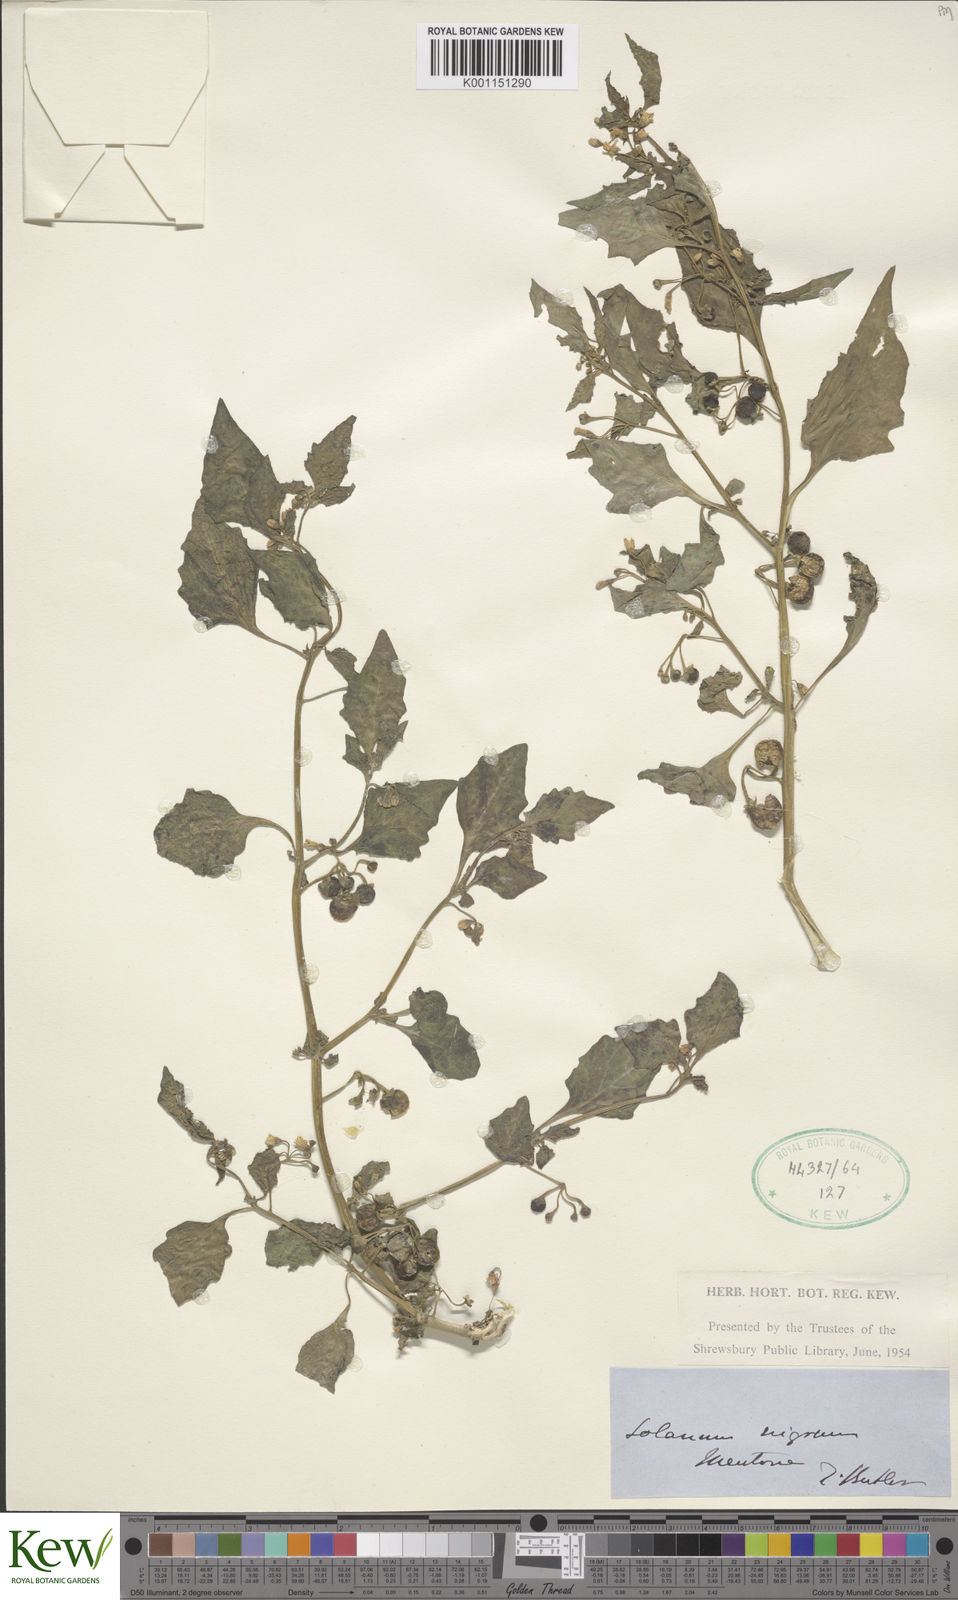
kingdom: Plantae
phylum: Tracheophyta
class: Magnoliopsida
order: Solanales
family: Solanaceae
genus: Solanum
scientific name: Solanum nigrum
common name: Black nightshade
